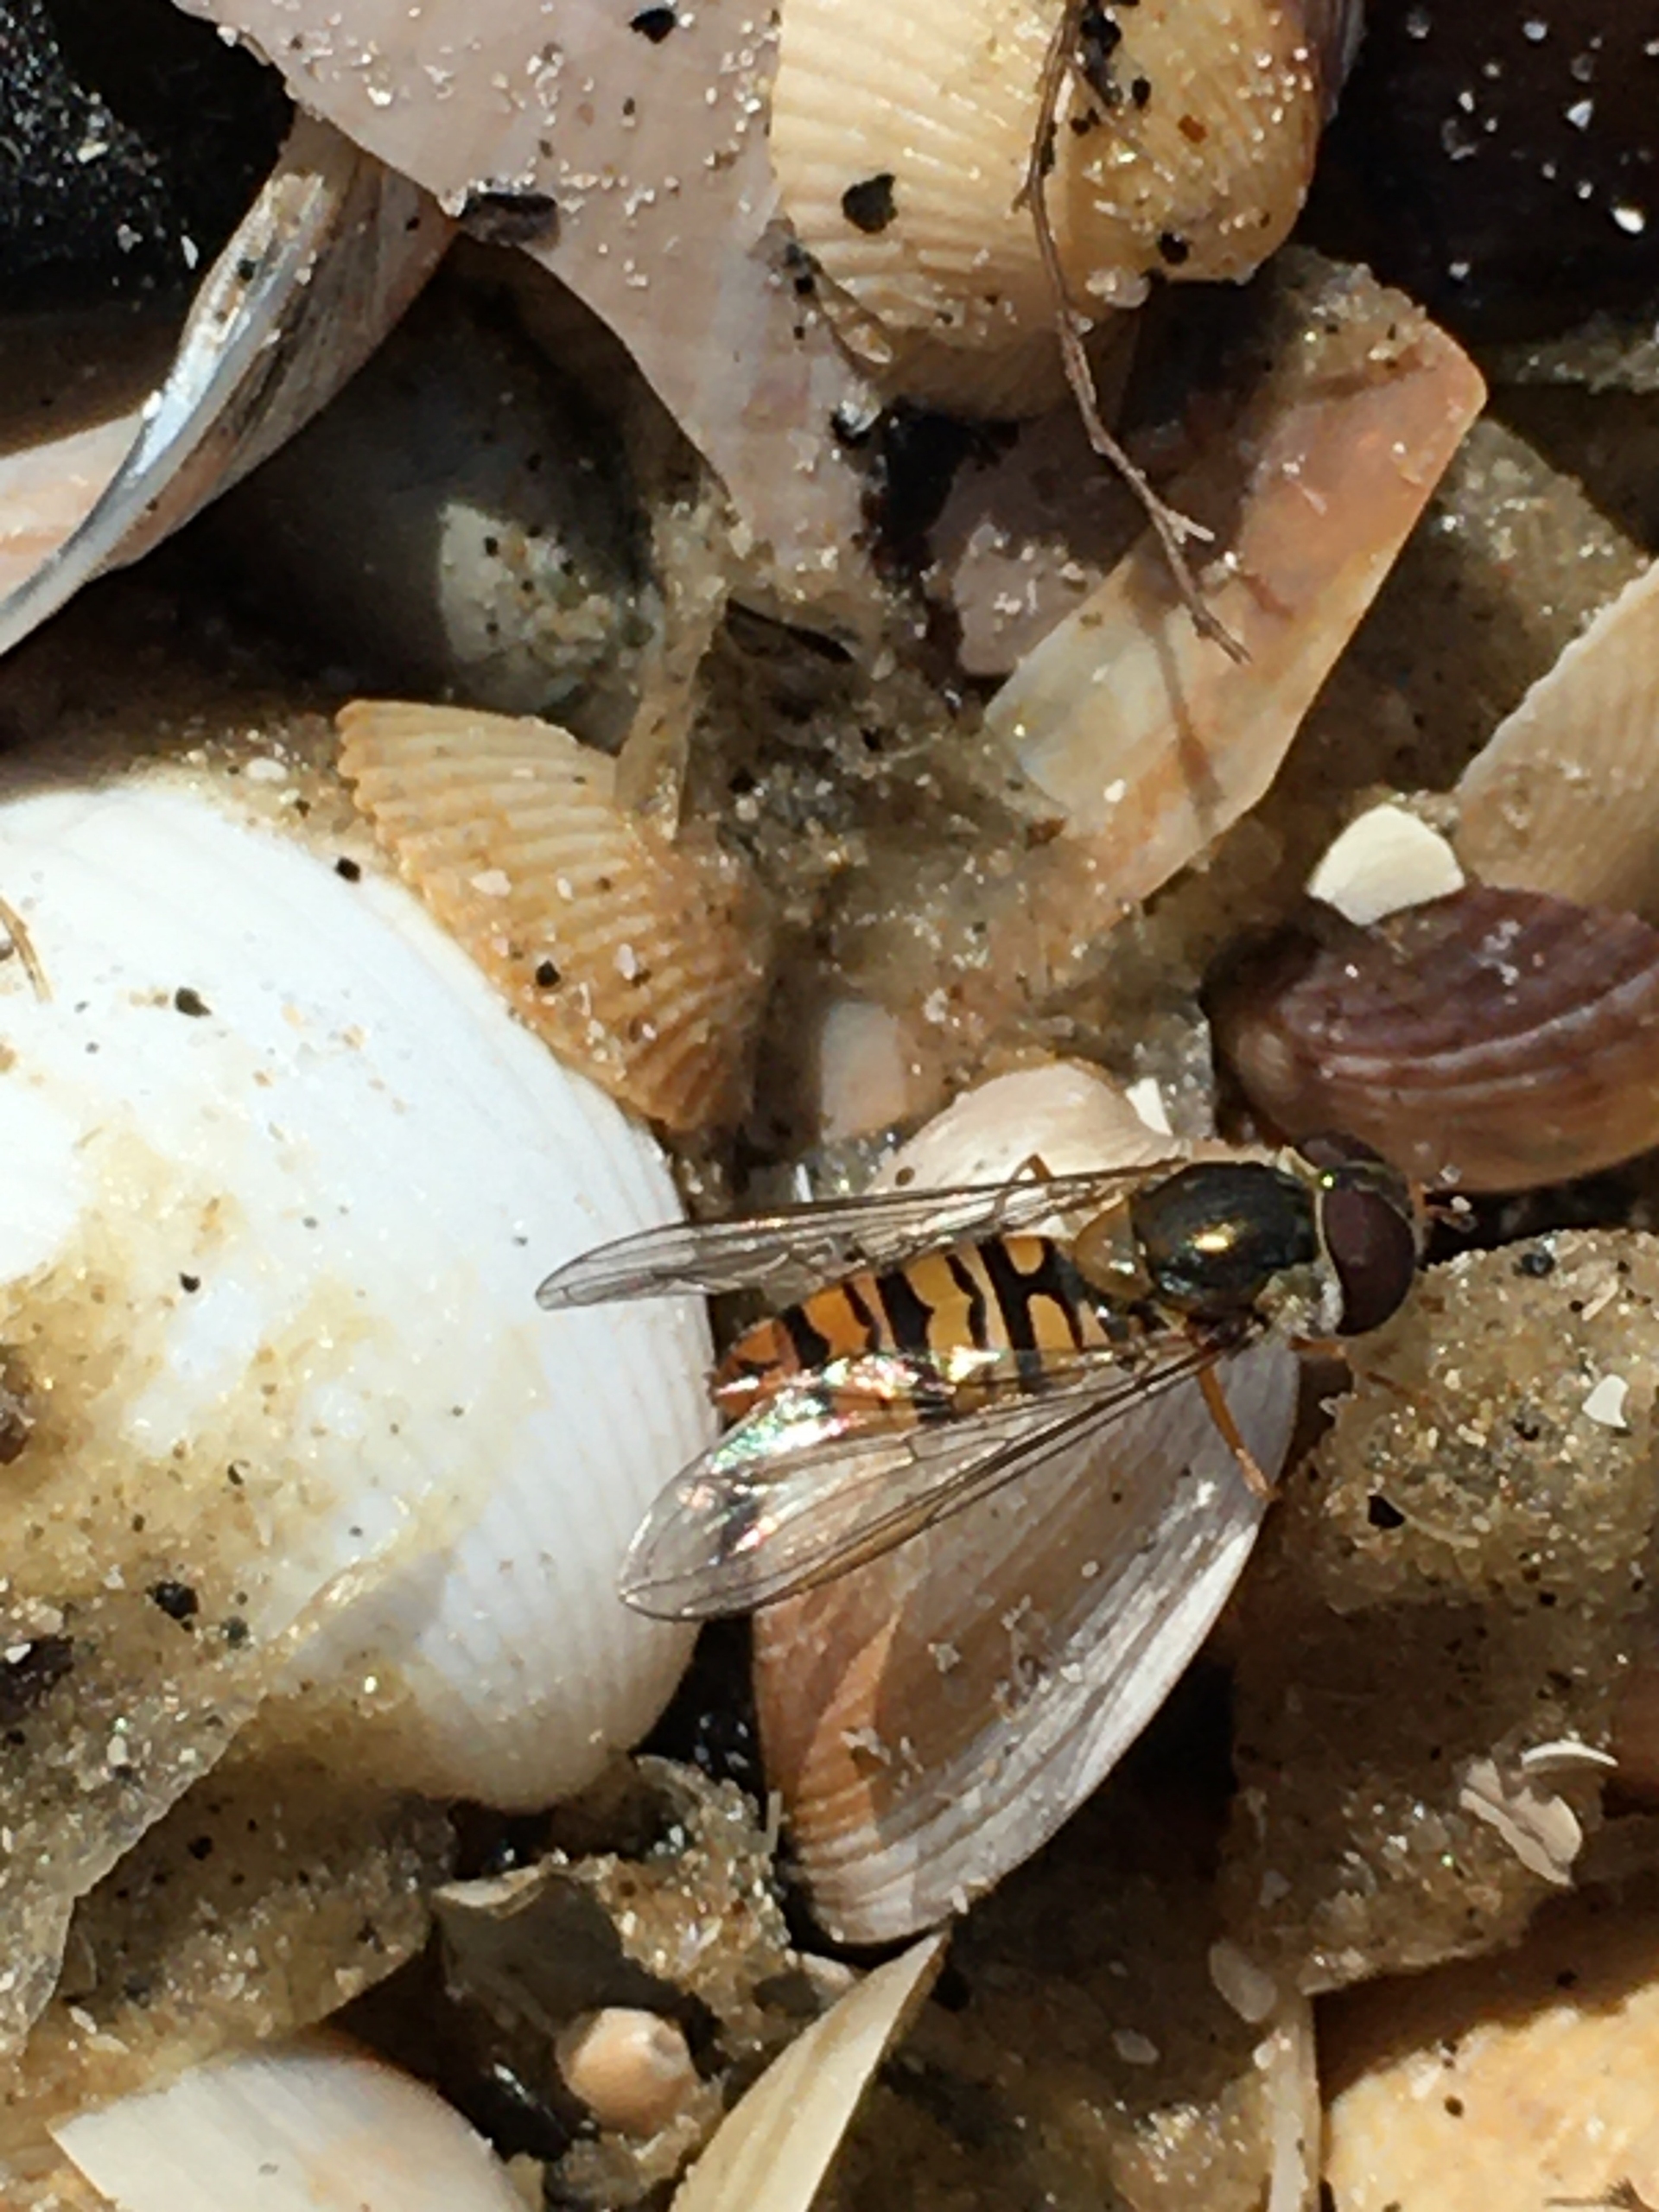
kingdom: Animalia
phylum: Arthropoda
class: Insecta
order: Diptera
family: Syrphidae
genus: Episyrphus
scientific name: Episyrphus balteatus
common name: Dobbeltbåndet svirreflue
